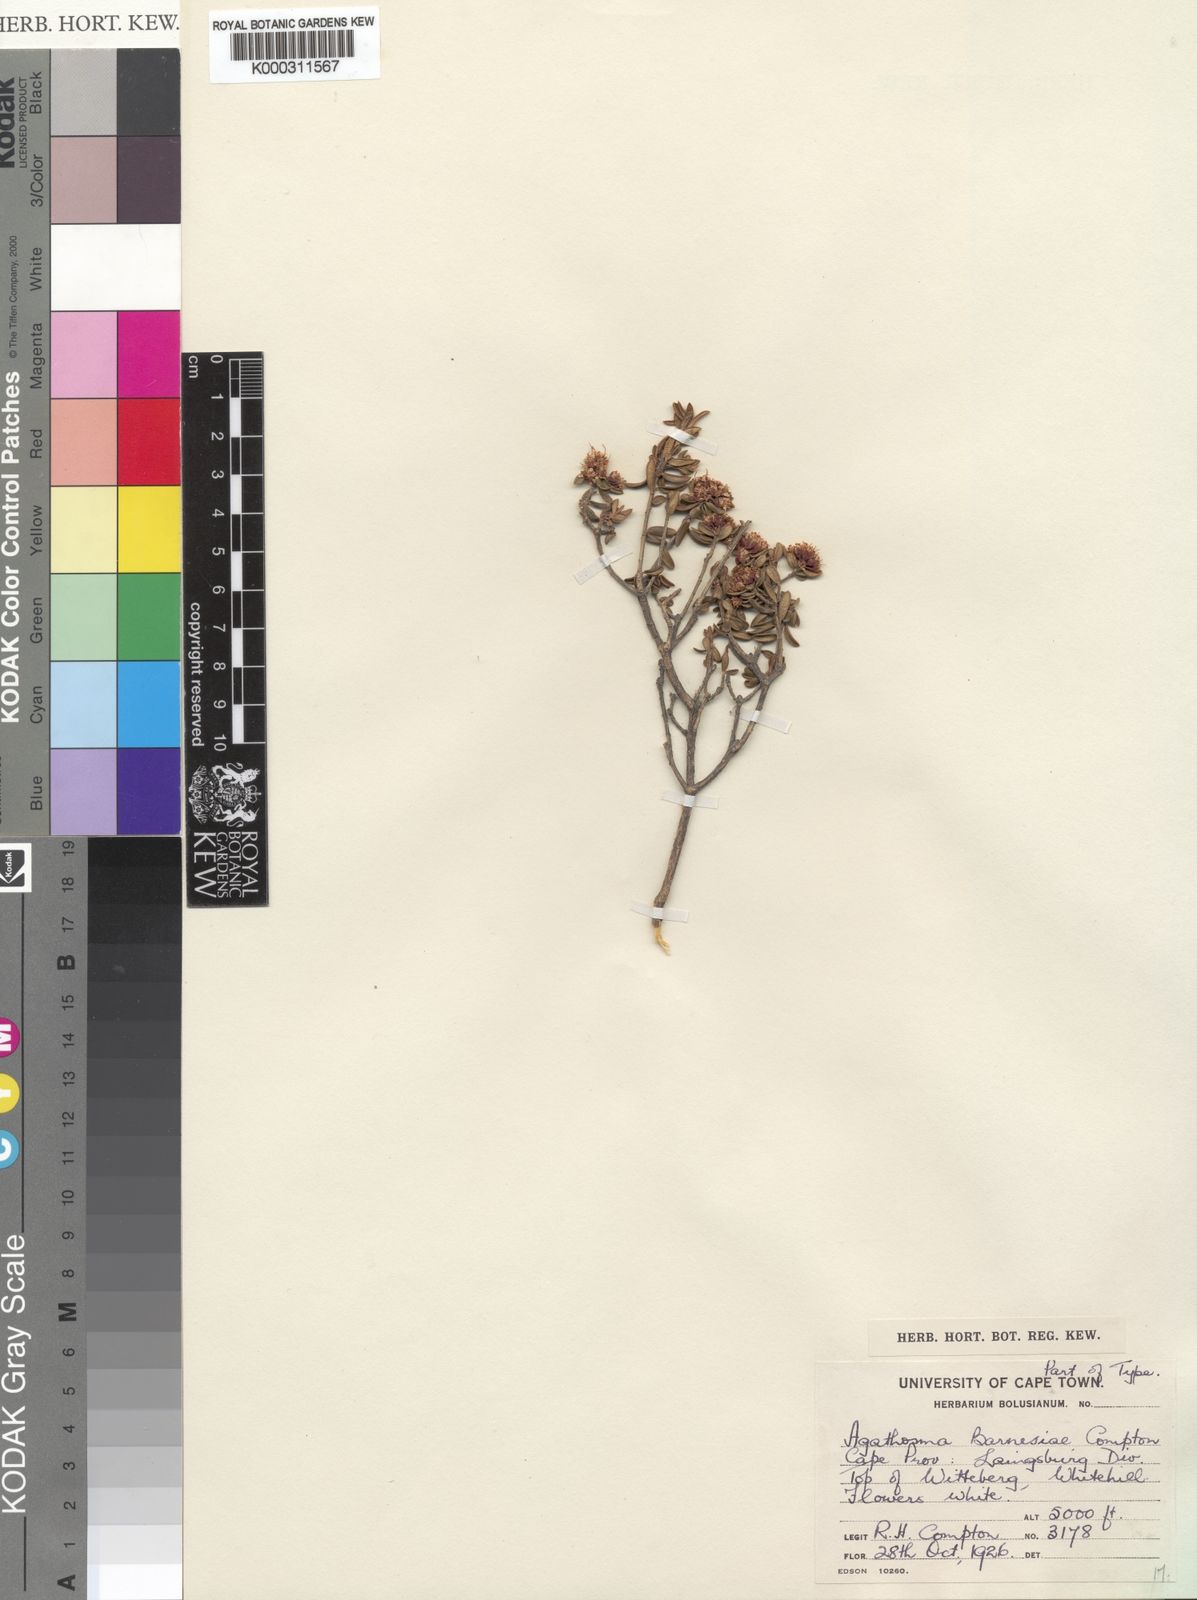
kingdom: Plantae
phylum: Tracheophyta
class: Magnoliopsida
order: Sapindales
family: Rutaceae
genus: Agathosma
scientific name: Agathosma barnesiae
